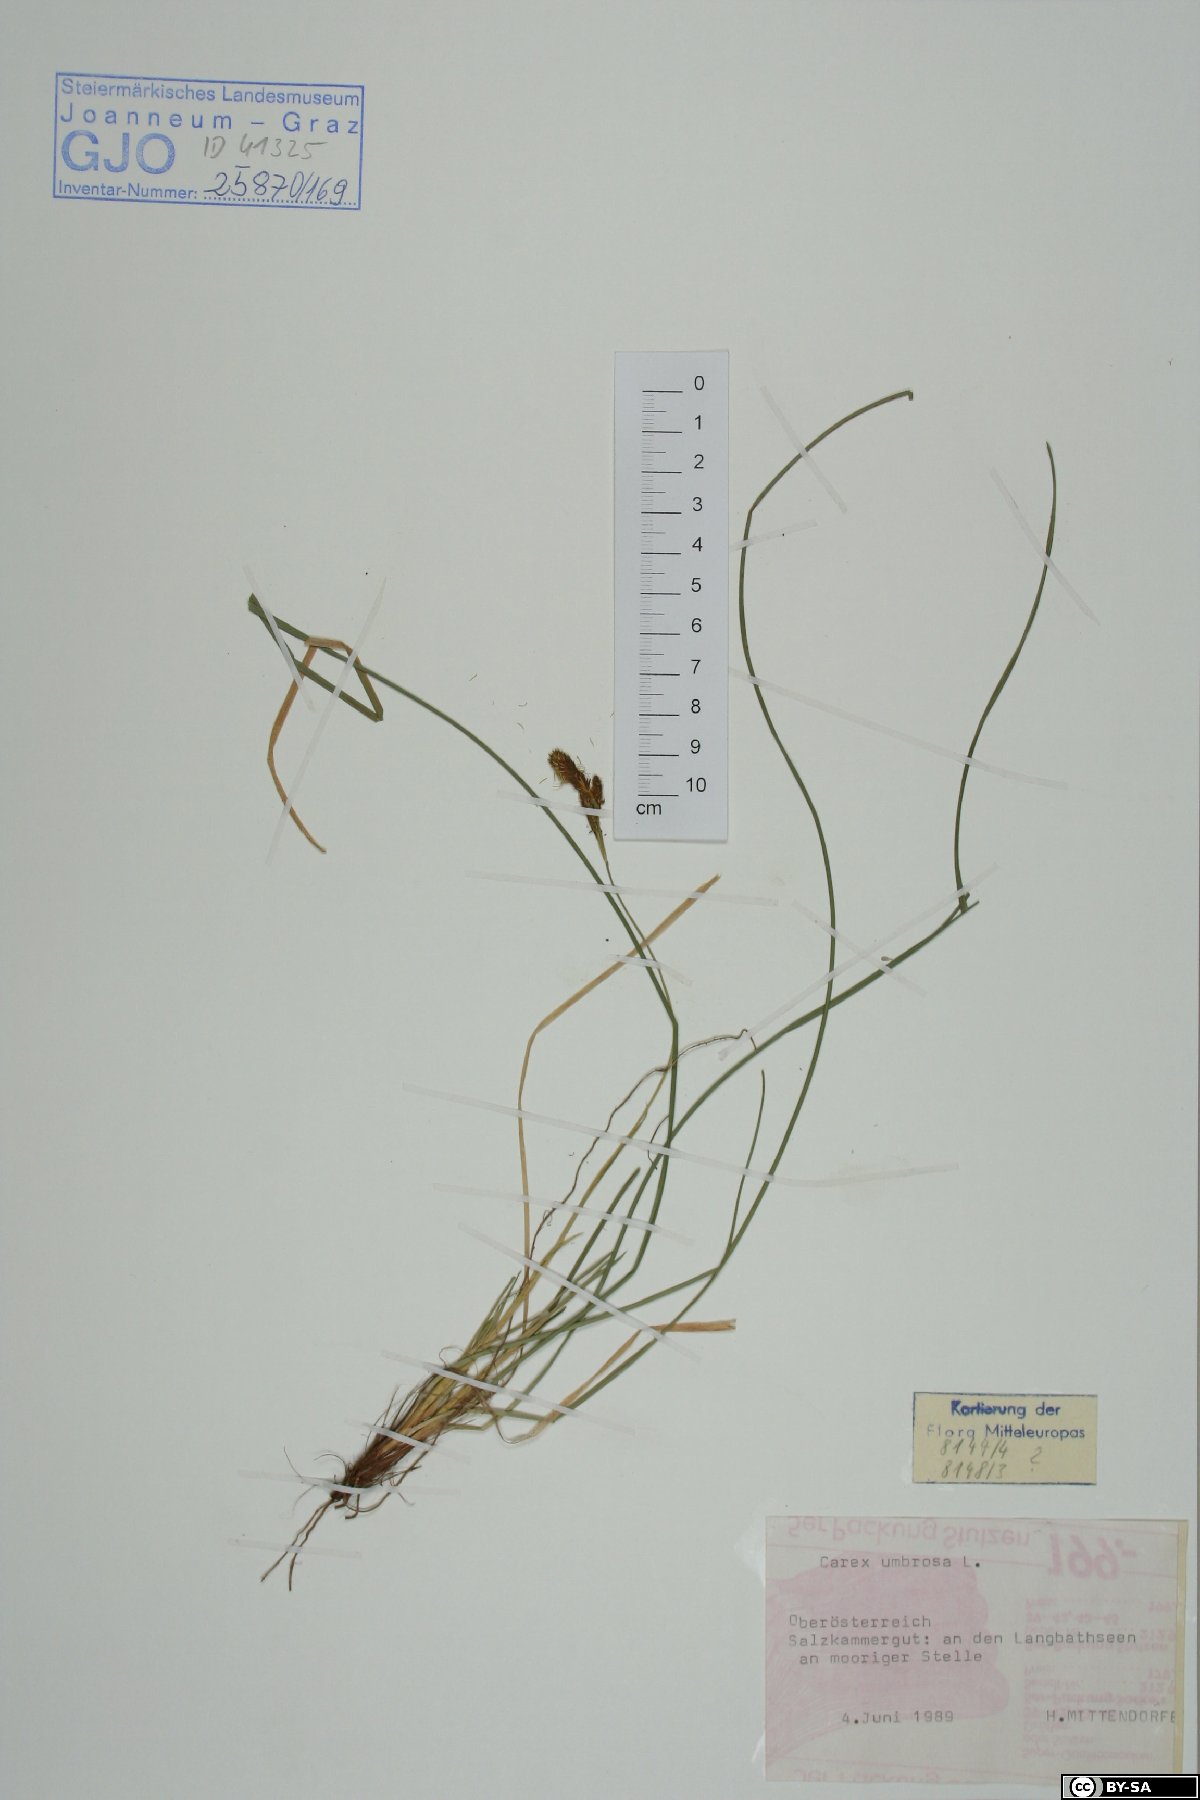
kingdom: Plantae
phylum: Tracheophyta
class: Liliopsida
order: Poales
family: Cyperaceae
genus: Carex
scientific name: Carex umbrosa
